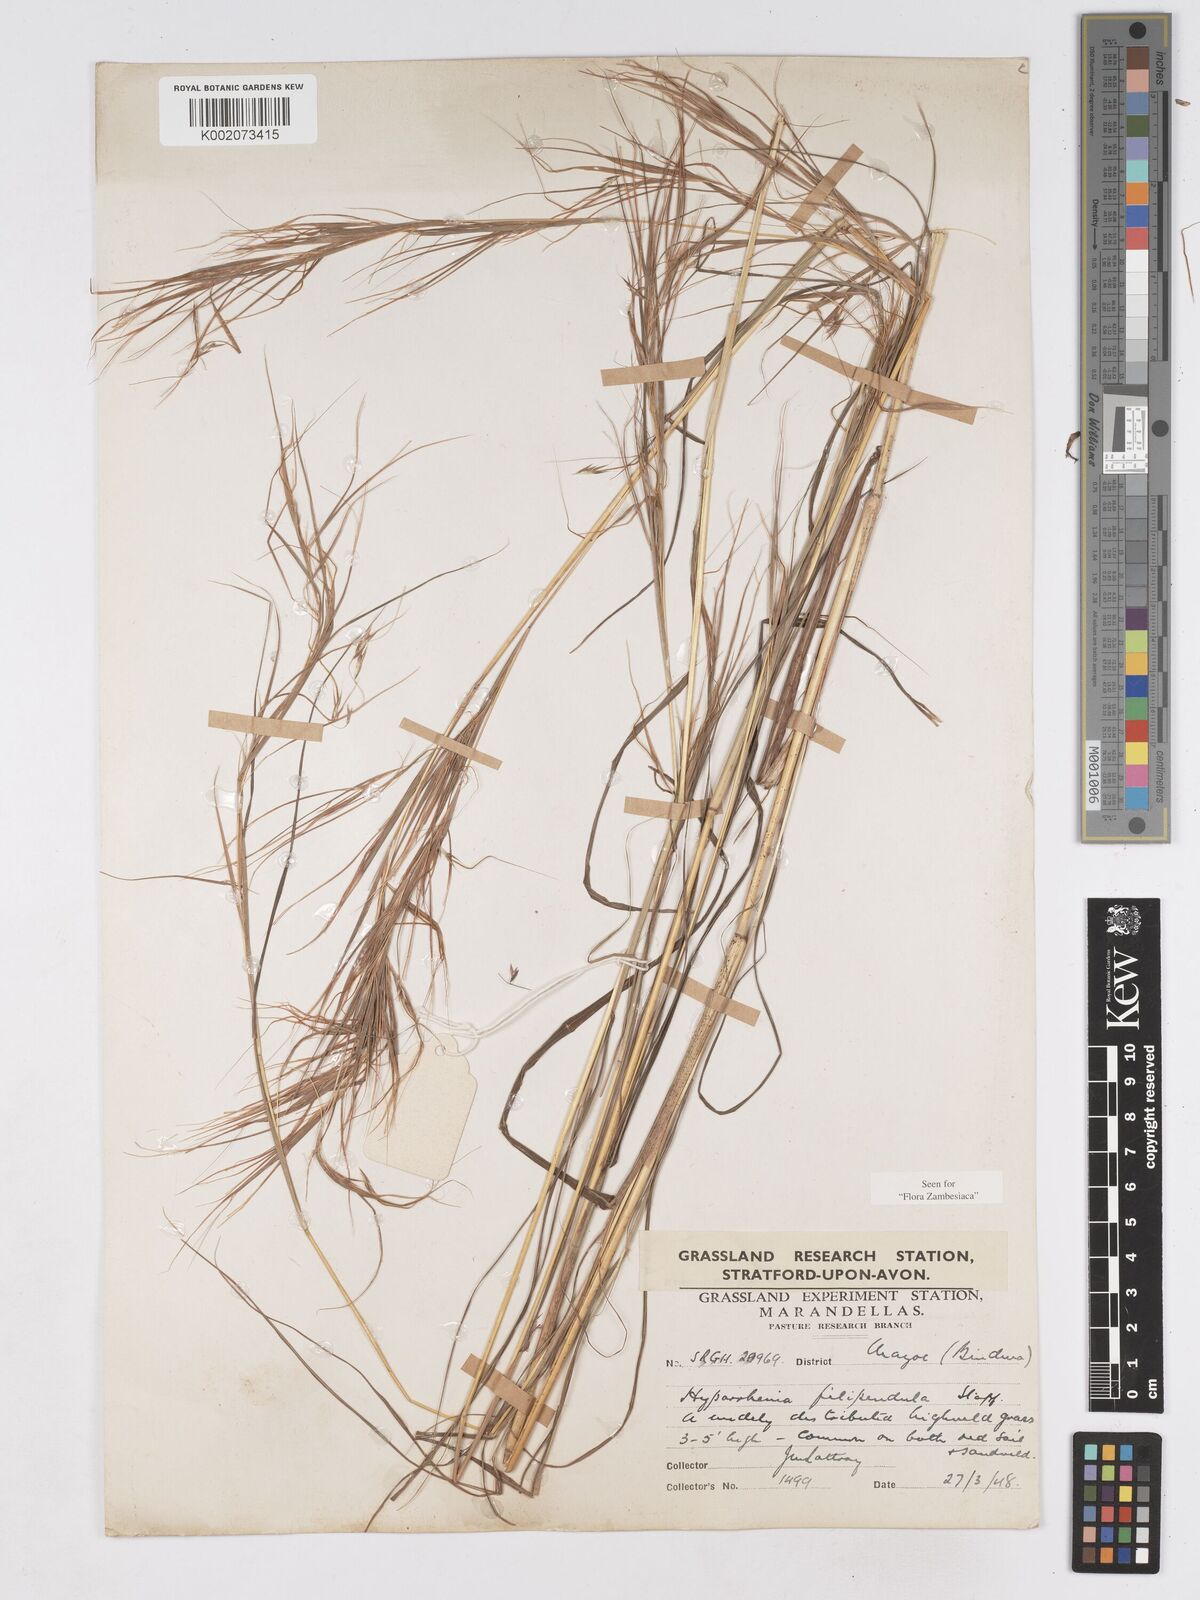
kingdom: Plantae
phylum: Tracheophyta
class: Liliopsida
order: Poales
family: Poaceae
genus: Hyparrhenia
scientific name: Hyparrhenia filipendula
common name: Tambookie grass
